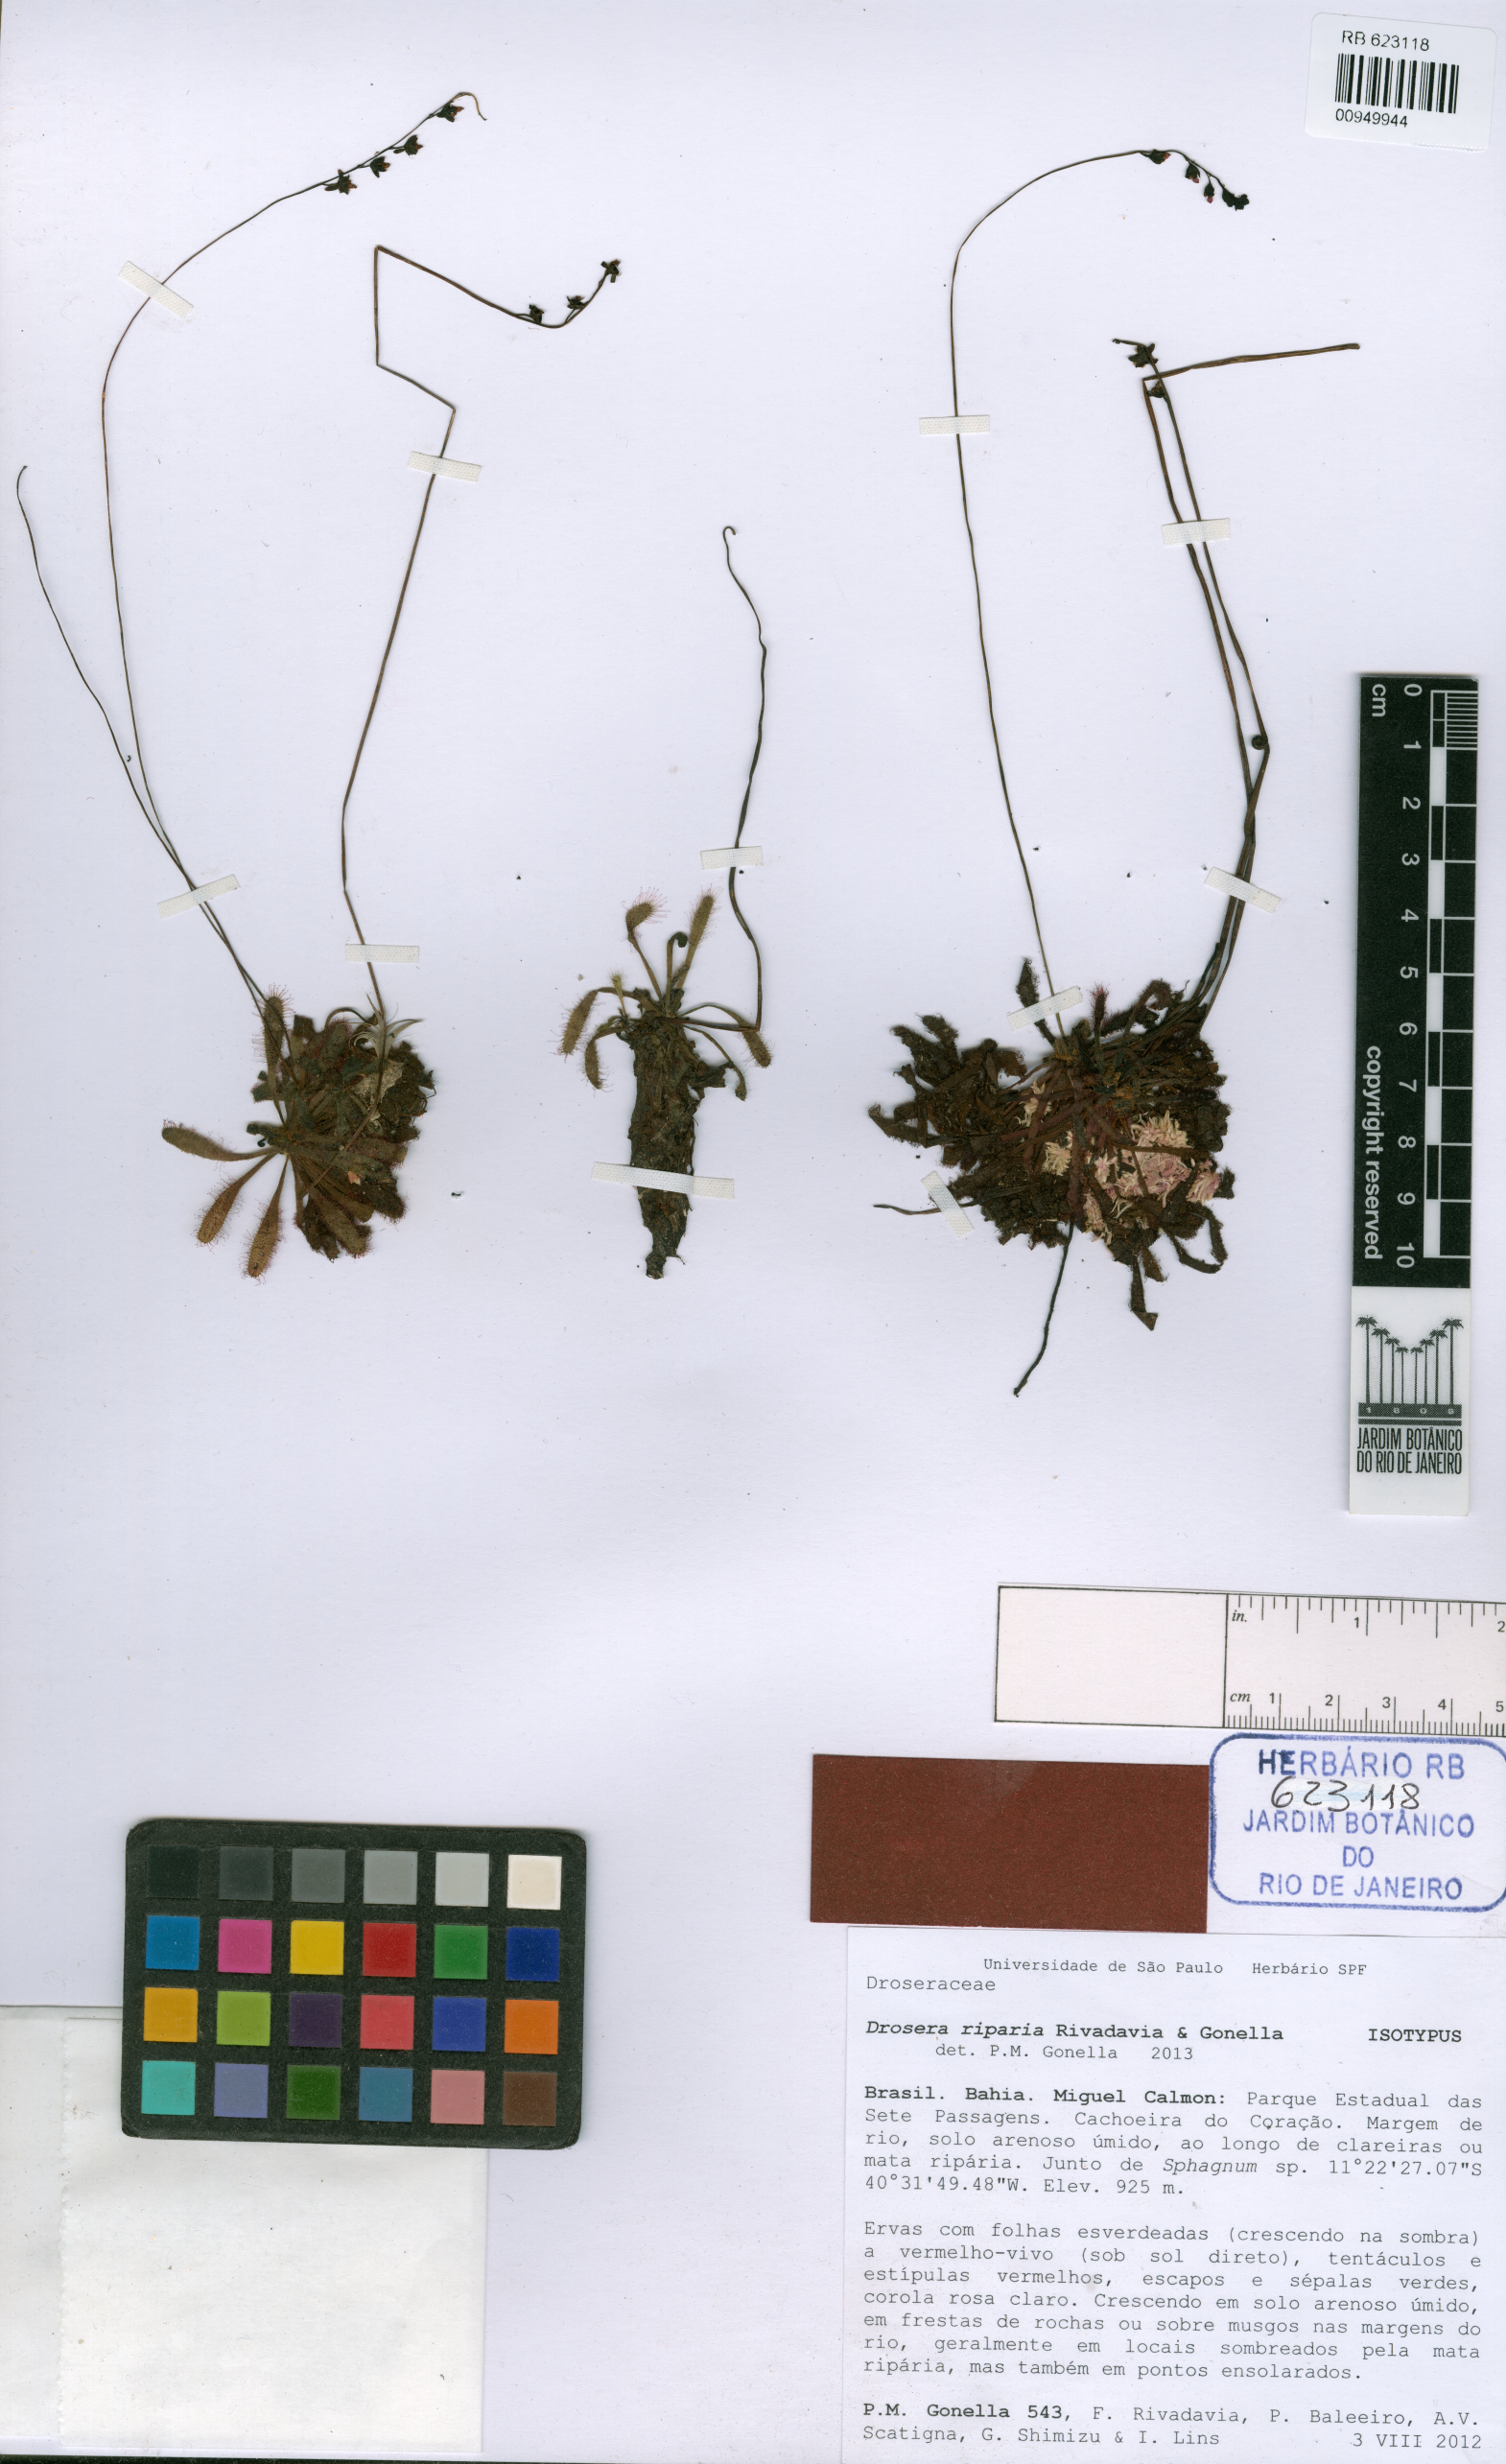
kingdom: Plantae
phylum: Tracheophyta
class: Magnoliopsida
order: Caryophyllales
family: Droseraceae
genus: Drosera
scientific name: Drosera riparia
